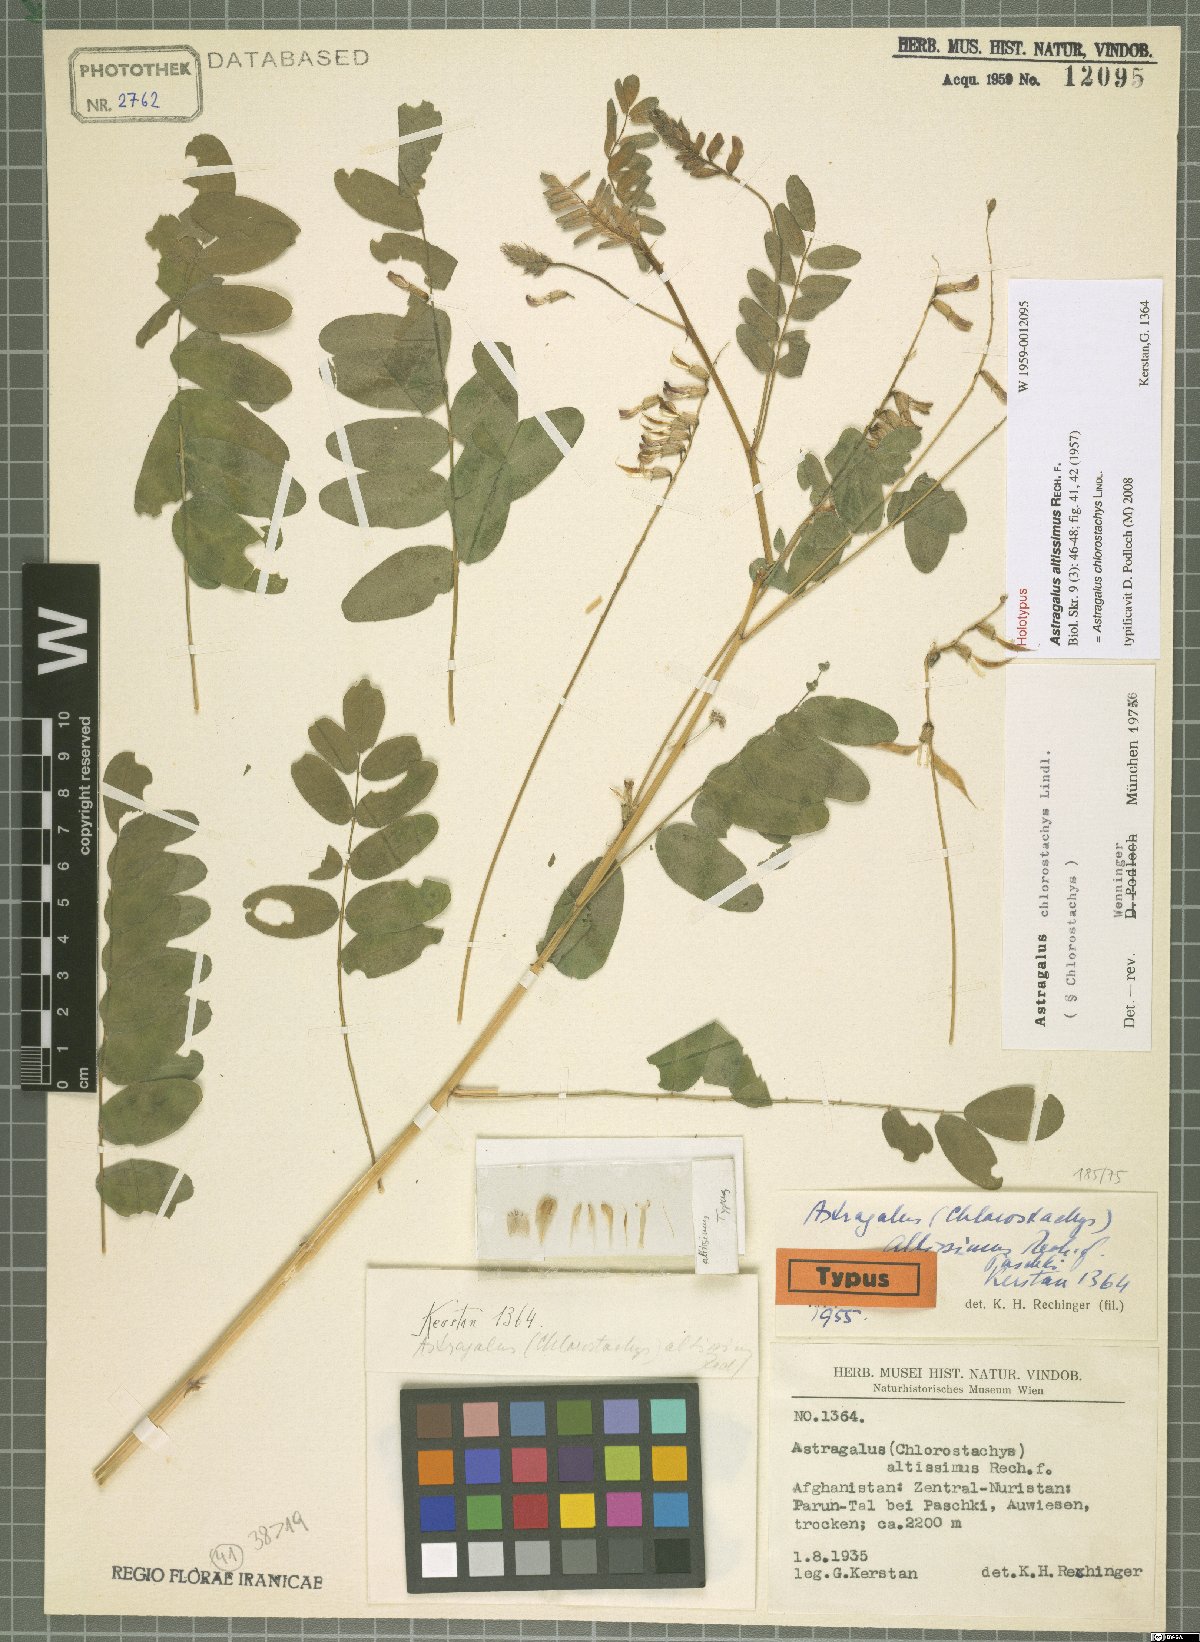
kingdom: Plantae
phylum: Tracheophyta
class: Magnoliopsida
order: Fabales
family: Fabaceae
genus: Astragalus
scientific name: Astragalus chlorostachys
